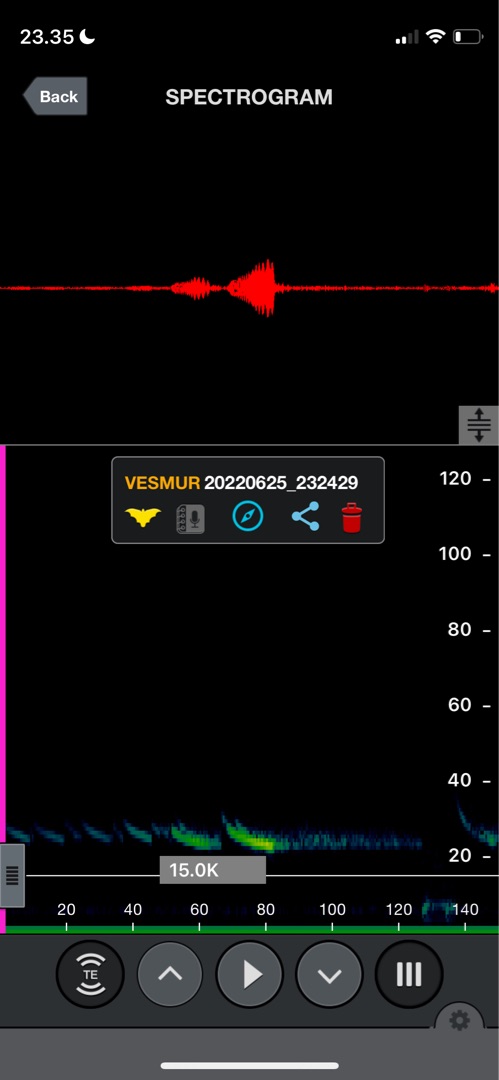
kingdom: Animalia
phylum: Chordata
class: Mammalia
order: Chiroptera
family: Vespertilionidae
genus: Vespertilio
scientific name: Vespertilio murinus
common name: Skimmelflagermus
